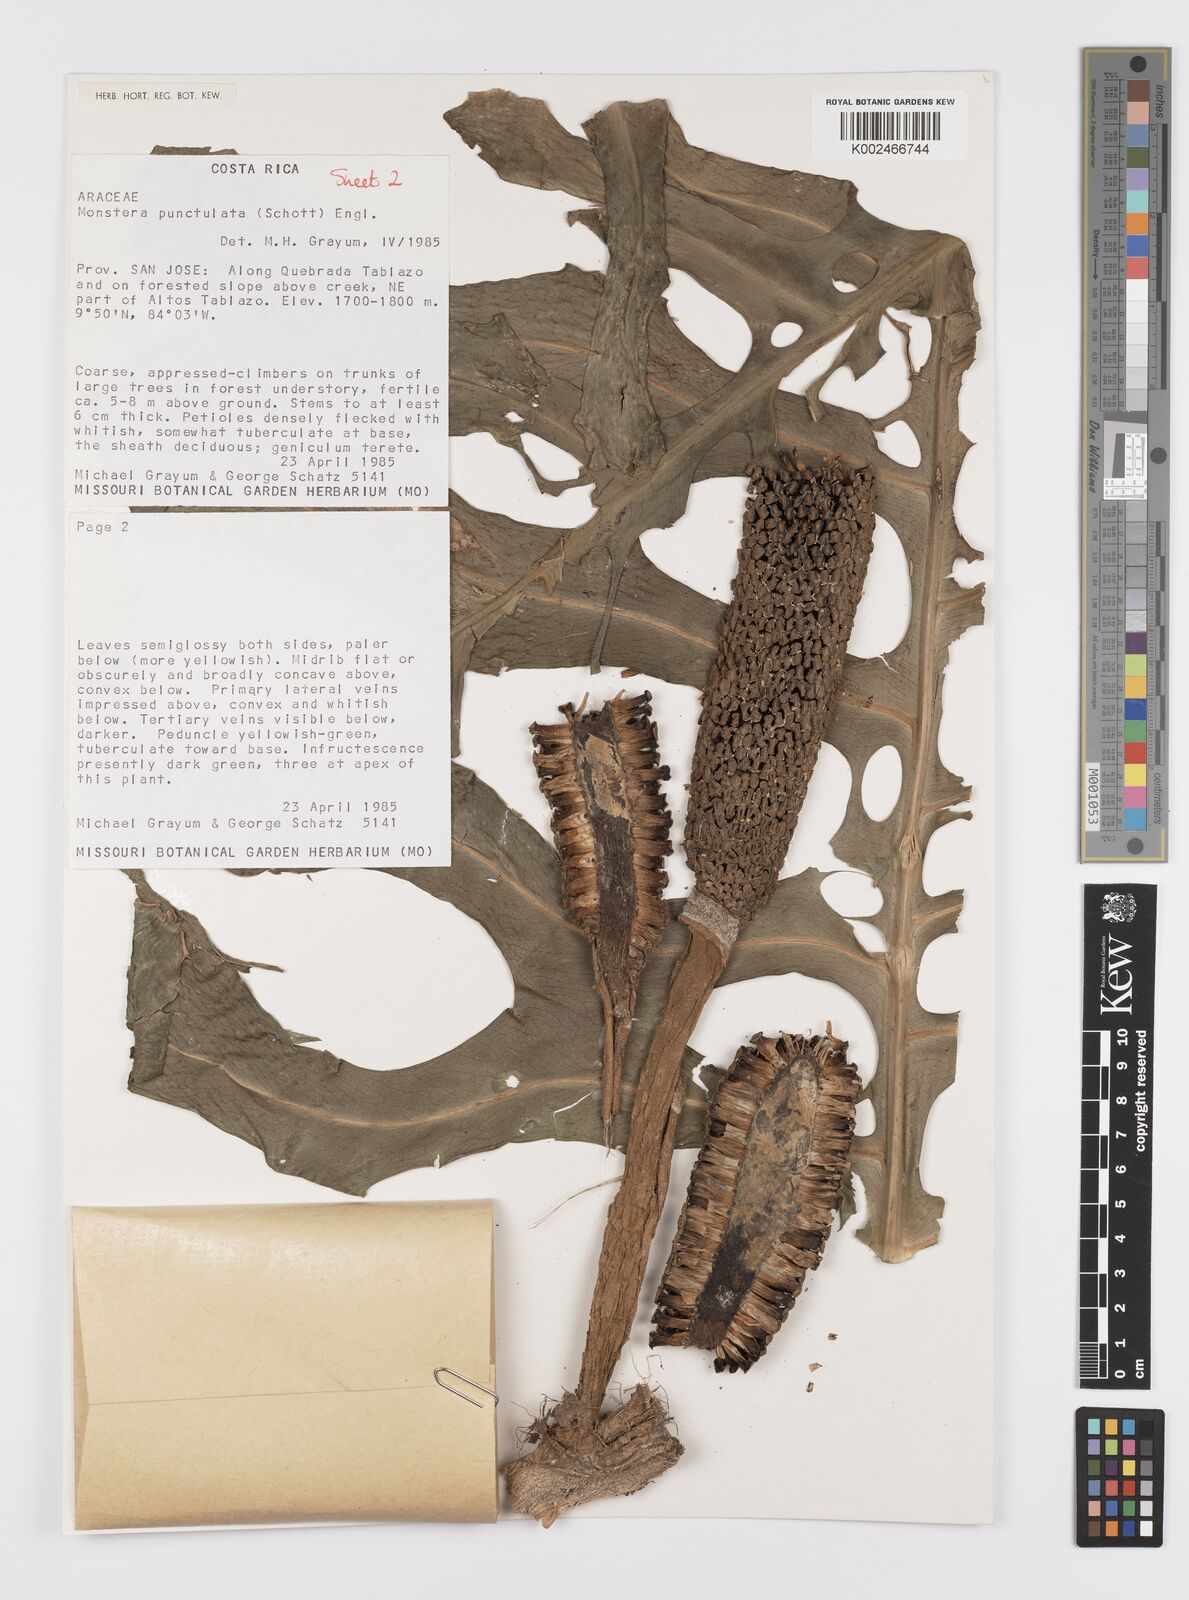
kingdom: Plantae
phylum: Tracheophyta
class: Liliopsida
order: Alismatales
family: Araceae
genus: Monstera
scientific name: Monstera punctulata
